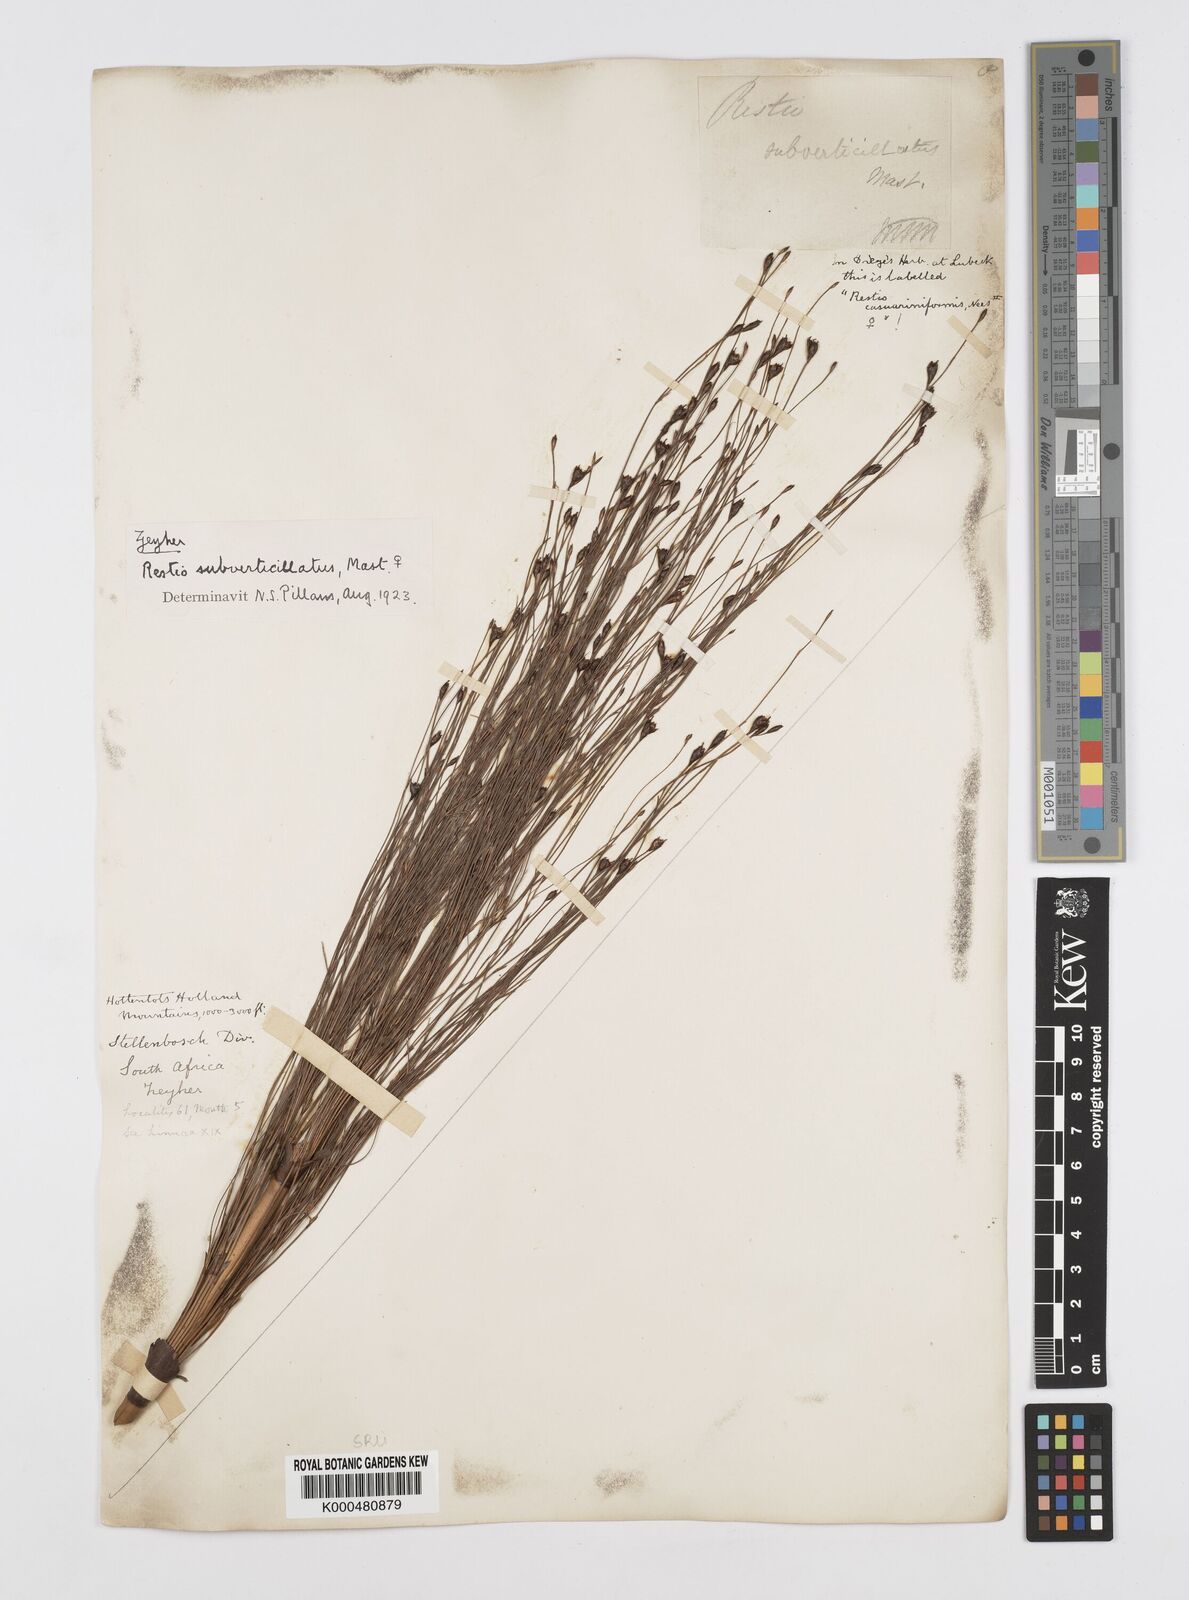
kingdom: Plantae
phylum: Tracheophyta
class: Liliopsida
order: Poales
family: Restionaceae
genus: Restio
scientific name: Restio subverticillatus
